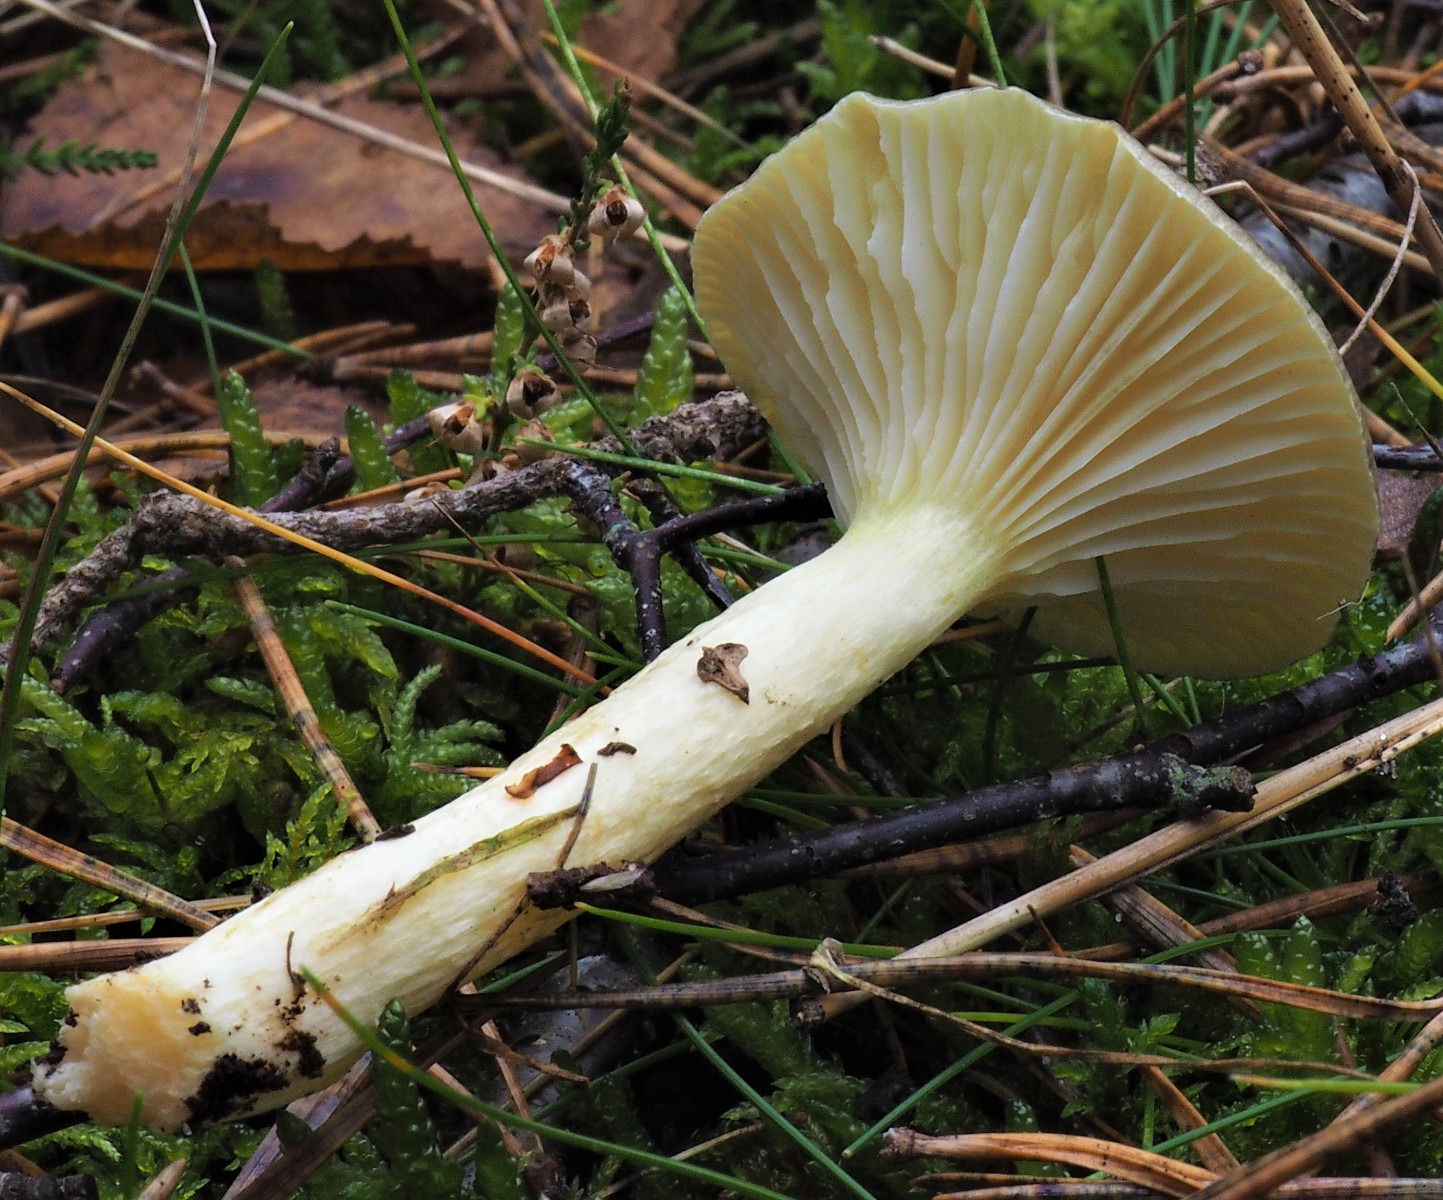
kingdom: Fungi
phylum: Basidiomycota
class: Agaricomycetes
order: Agaricales
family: Hygrophoraceae
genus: Hygrophorus
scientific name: Hygrophorus hypothejus
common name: frost-sneglehat
